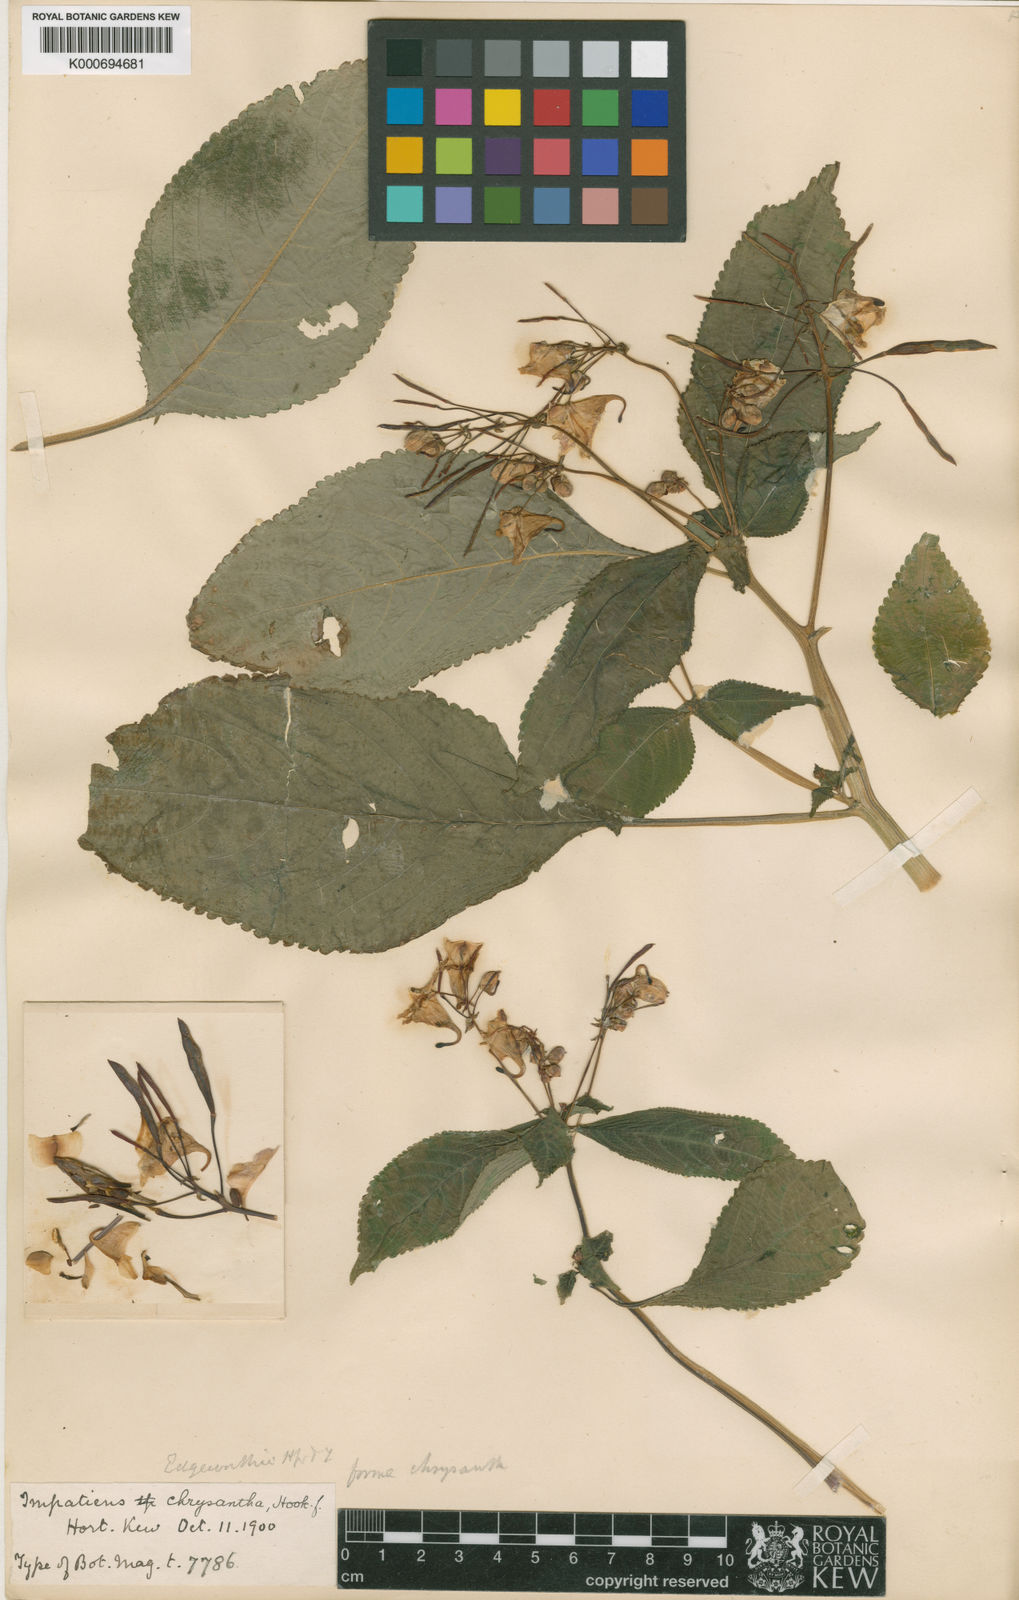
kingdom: Plantae
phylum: Tracheophyta
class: Magnoliopsida
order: Ericales
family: Balsaminaceae
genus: Impatiens
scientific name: Impatiens edgeworthii
